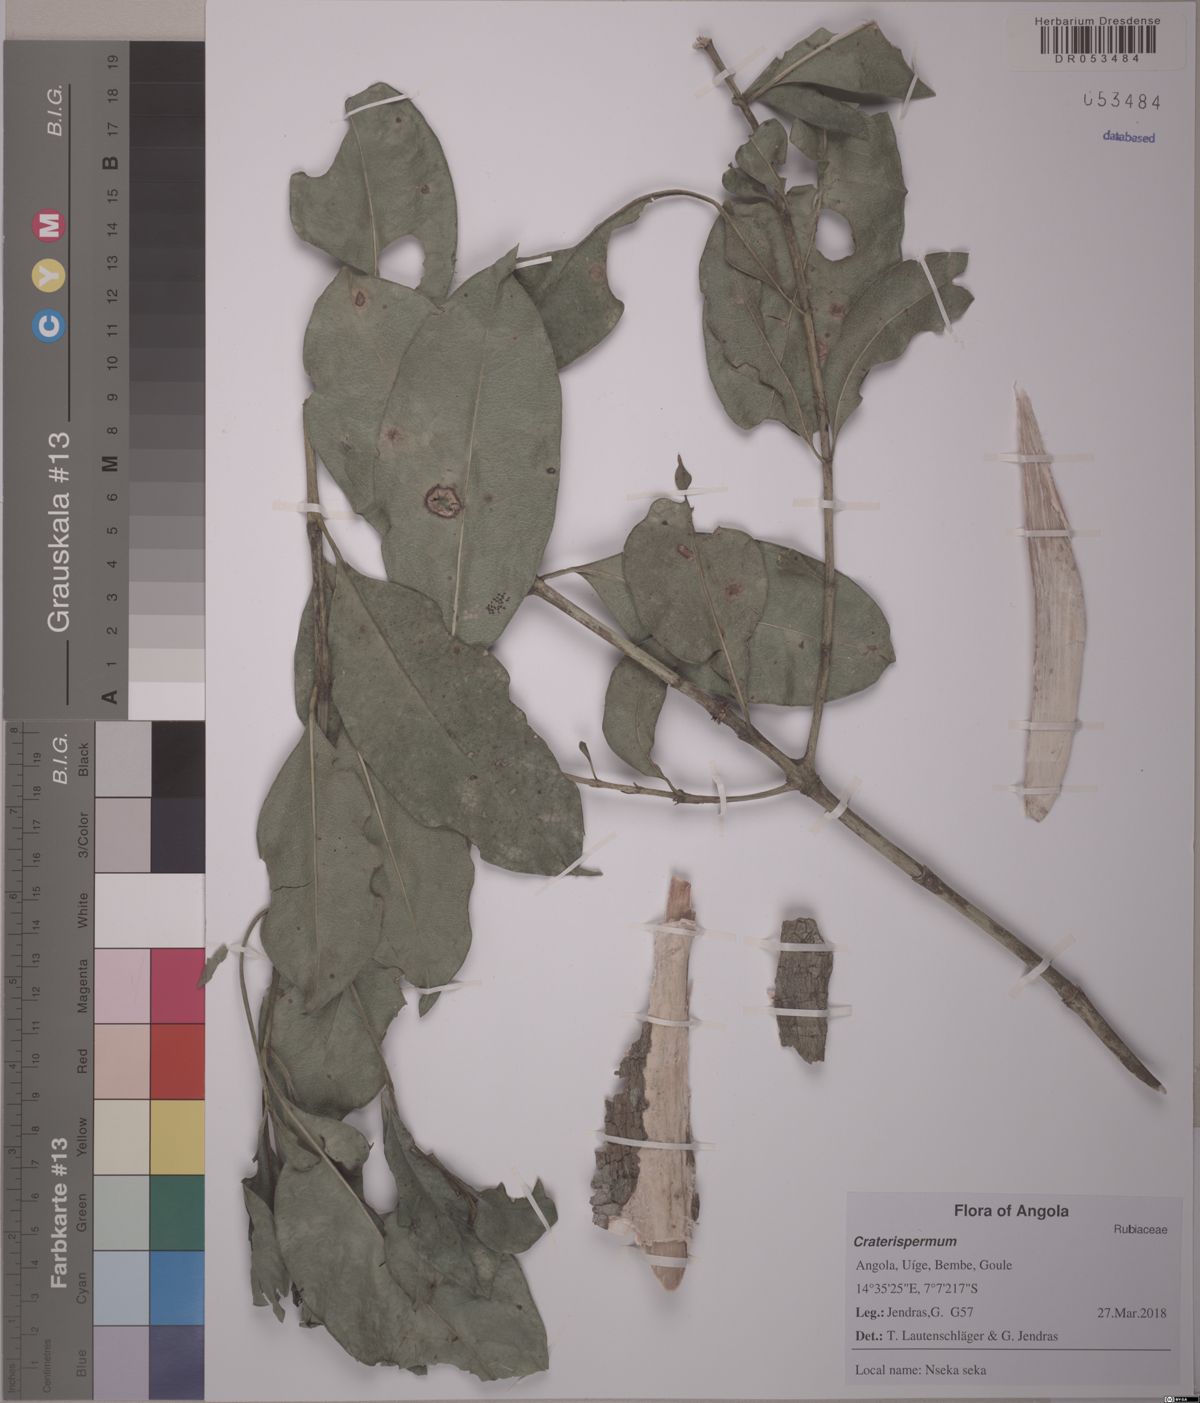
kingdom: Plantae
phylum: Tracheophyta
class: Magnoliopsida
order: Gentianales
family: Rubiaceae
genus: Craterispermum
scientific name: Craterispermum
